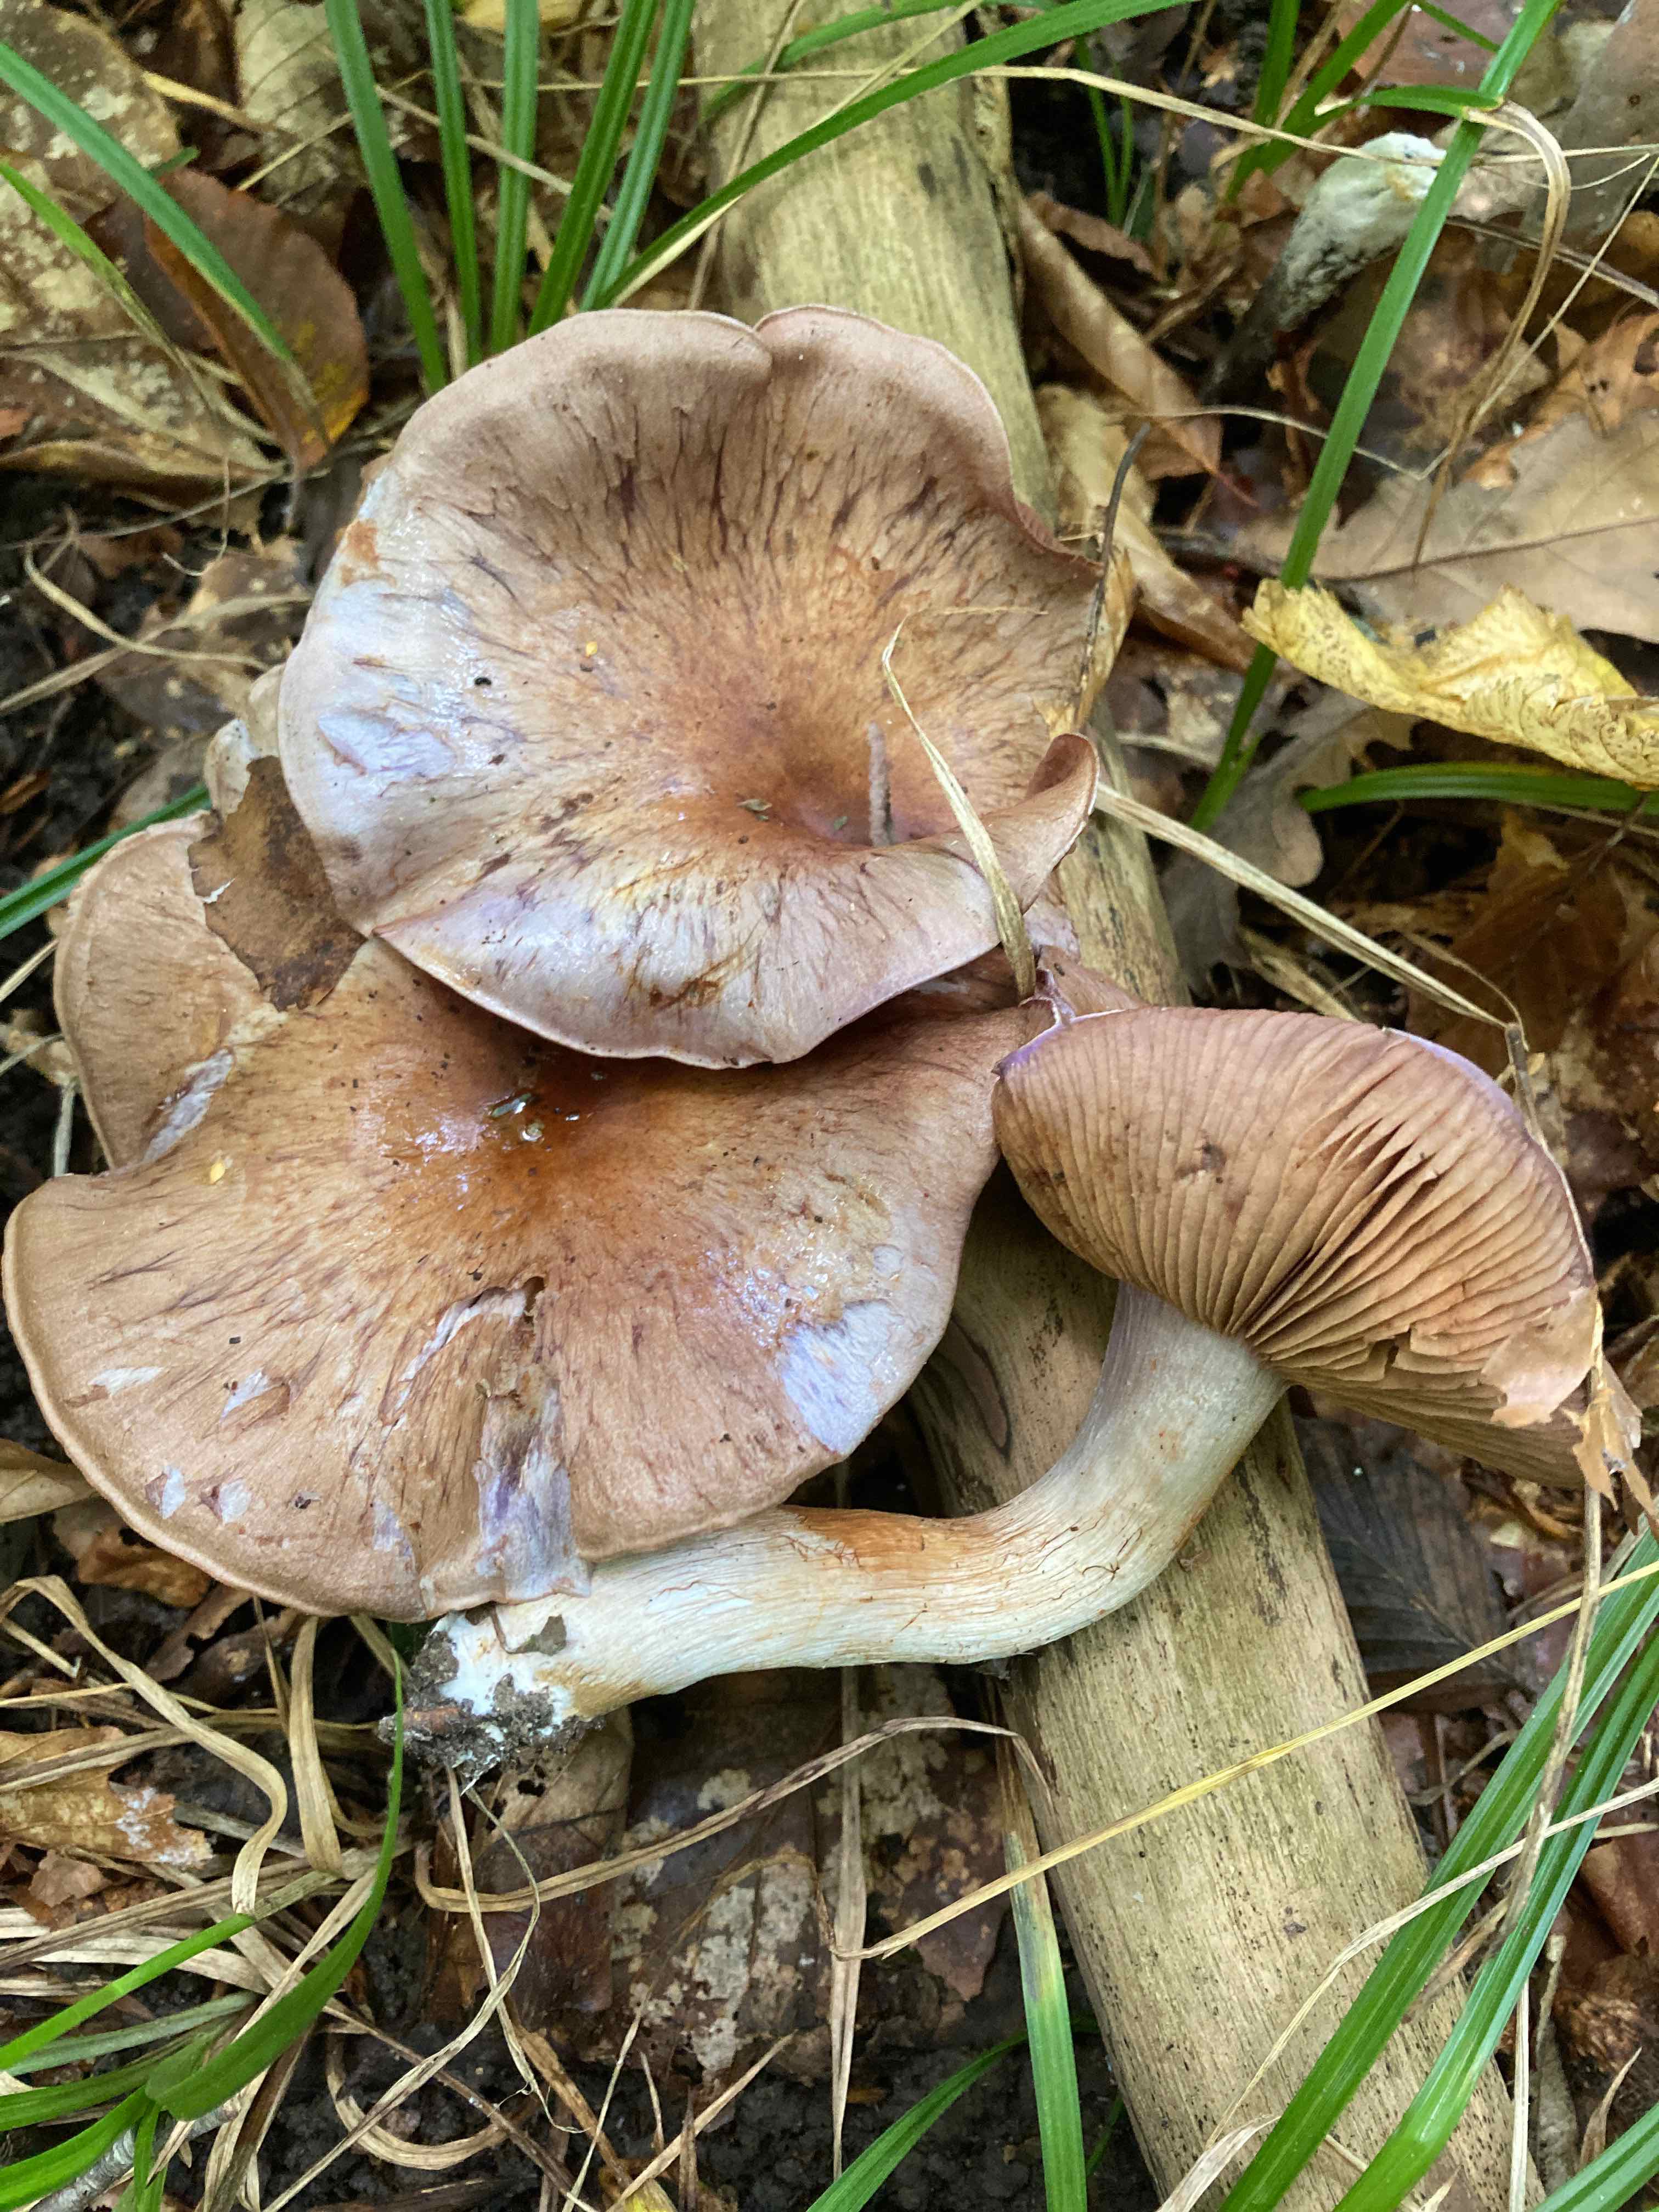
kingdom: Fungi
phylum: Basidiomycota
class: Agaricomycetes
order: Agaricales
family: Cortinariaceae
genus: Phlegmacium
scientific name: Phlegmacium pseudodaulnoyae
